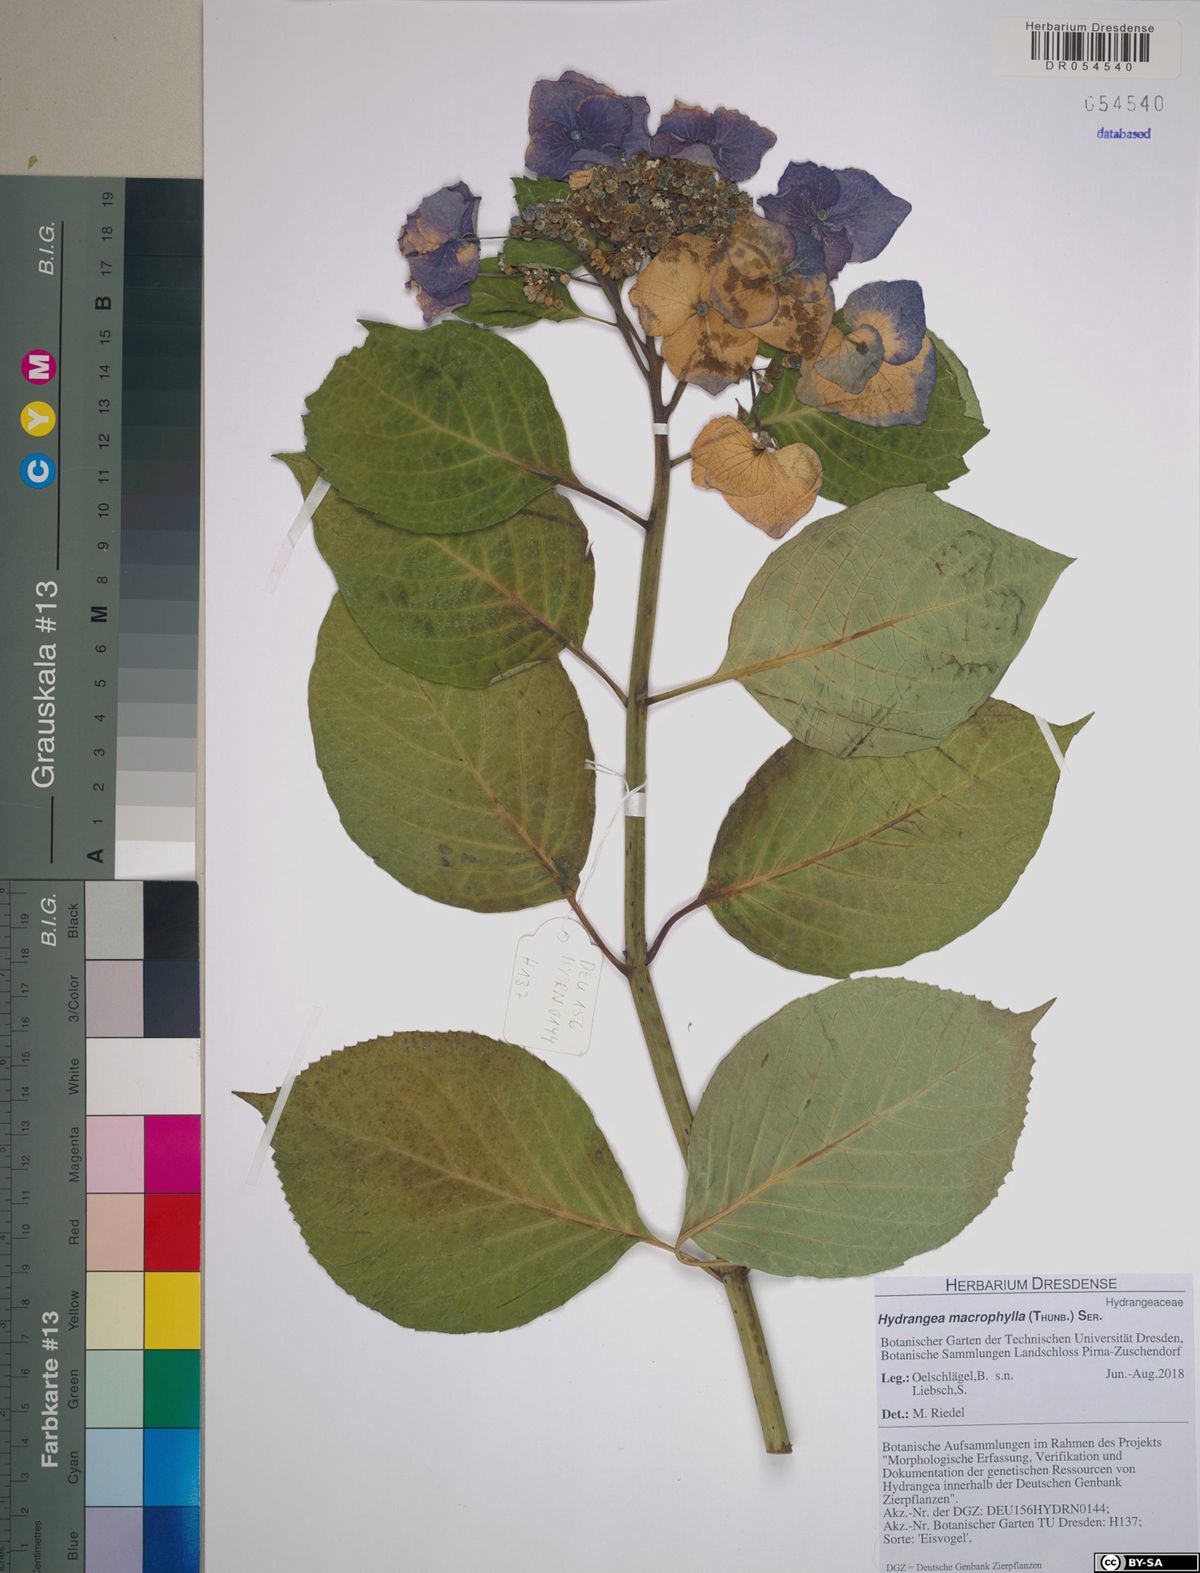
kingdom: Plantae
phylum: Tracheophyta
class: Magnoliopsida
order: Cornales
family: Hydrangeaceae
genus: Hydrangea
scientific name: Hydrangea macrophylla
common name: Hydrangea
